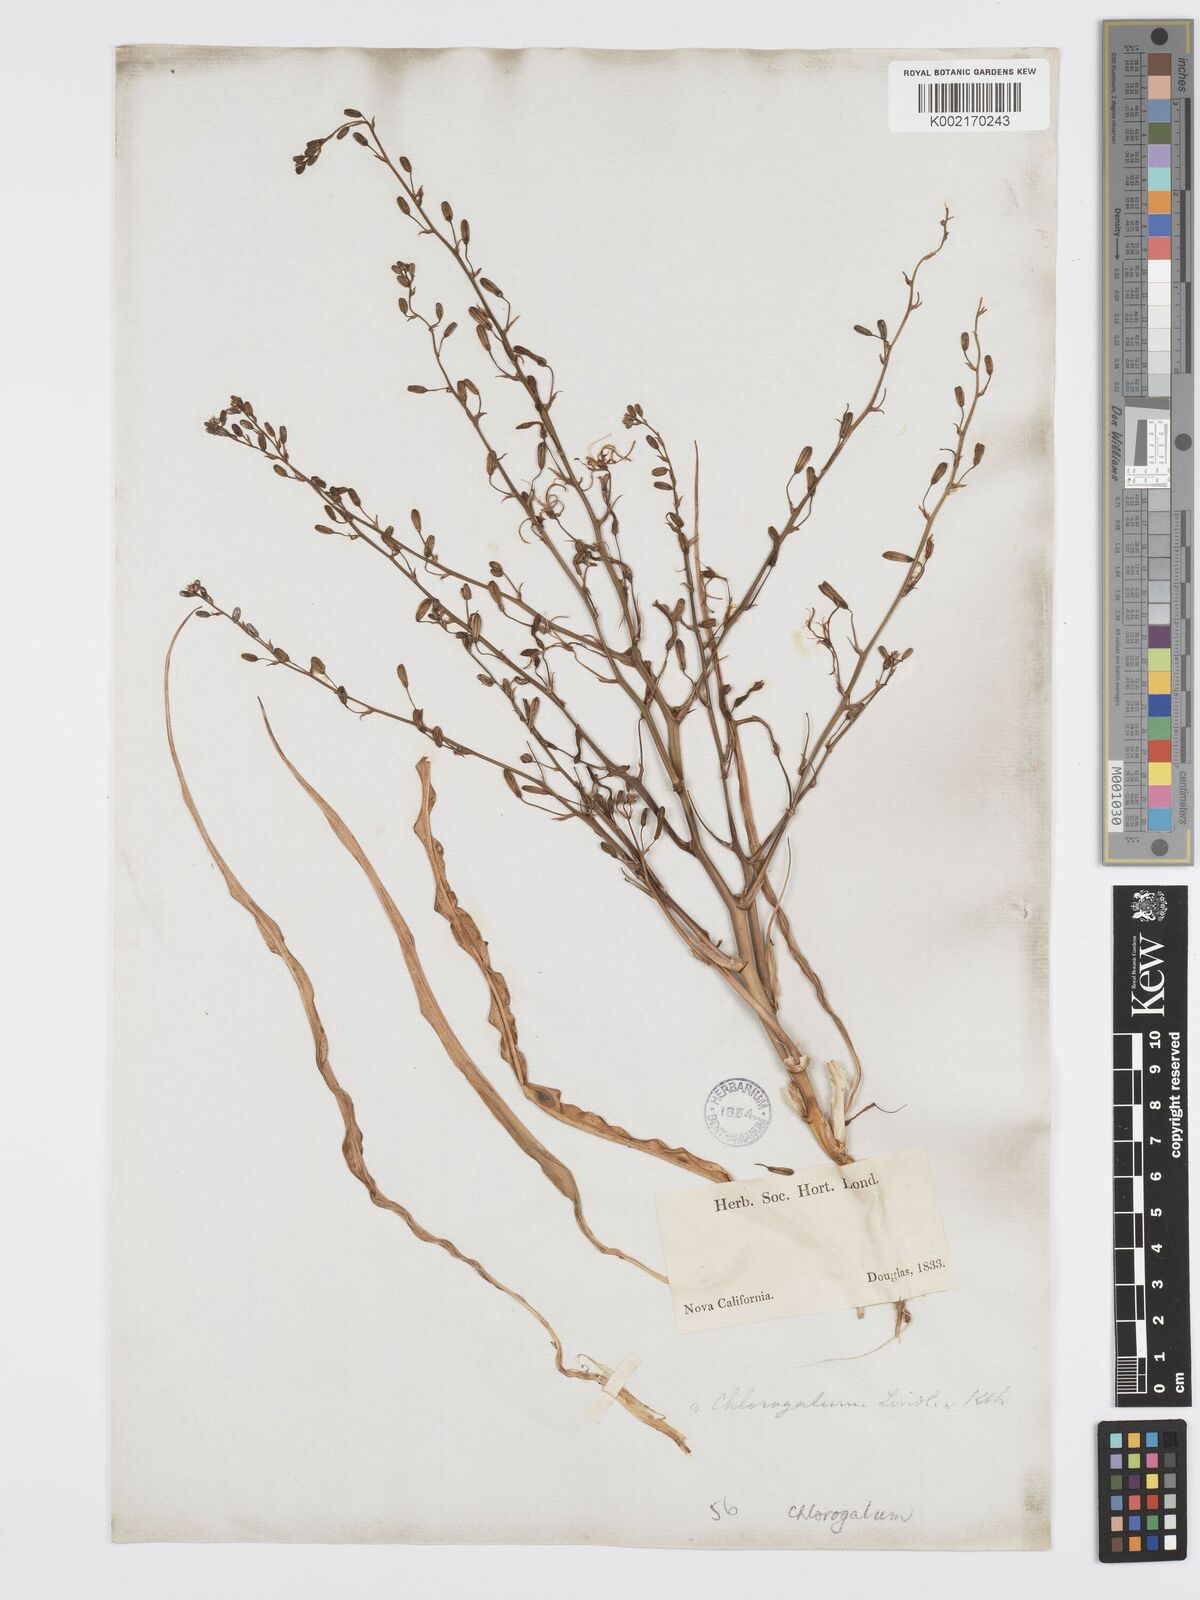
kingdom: Plantae
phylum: Tracheophyta
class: Liliopsida
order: Asparagales
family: Asparagaceae
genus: Chlorogalum
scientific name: Chlorogalum
